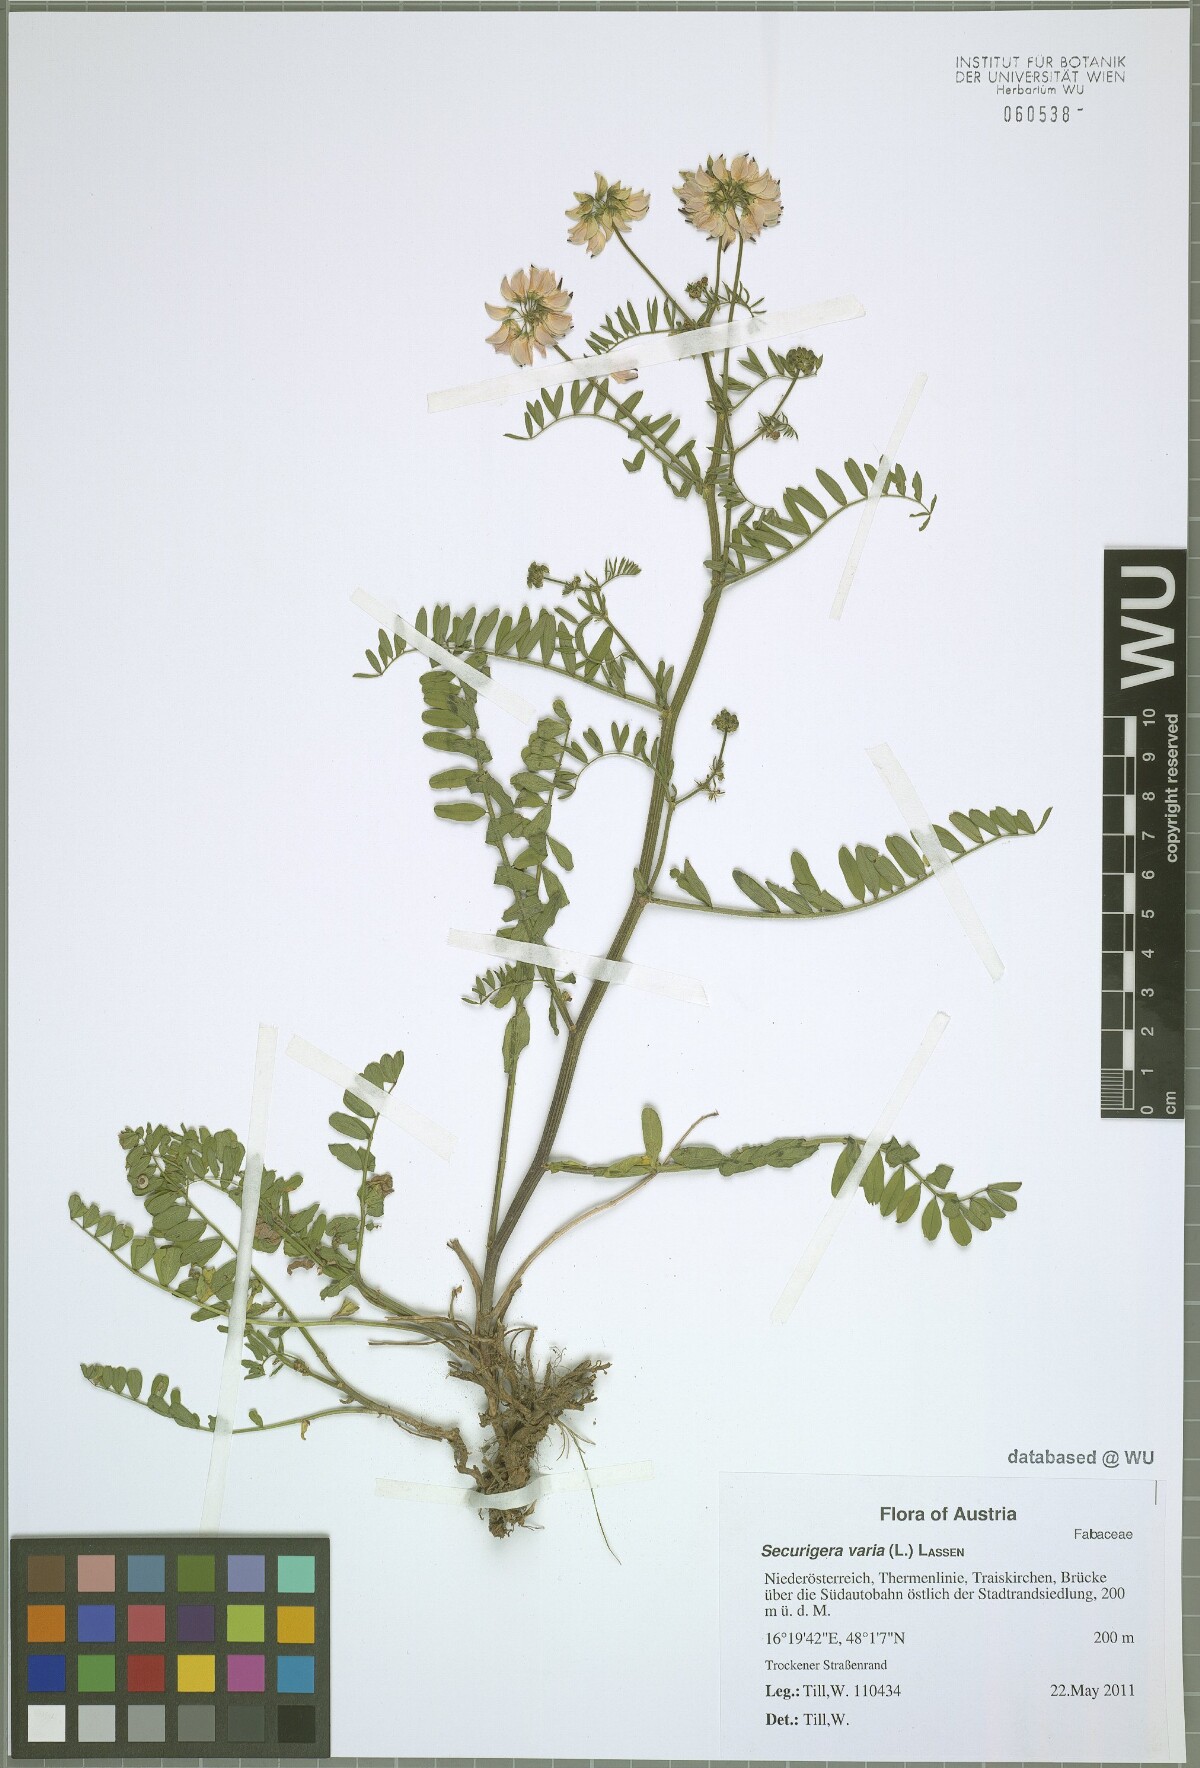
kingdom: Plantae
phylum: Tracheophyta
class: Magnoliopsida
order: Fabales
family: Fabaceae
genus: Coronilla
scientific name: Coronilla varia
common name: Crownvetch
